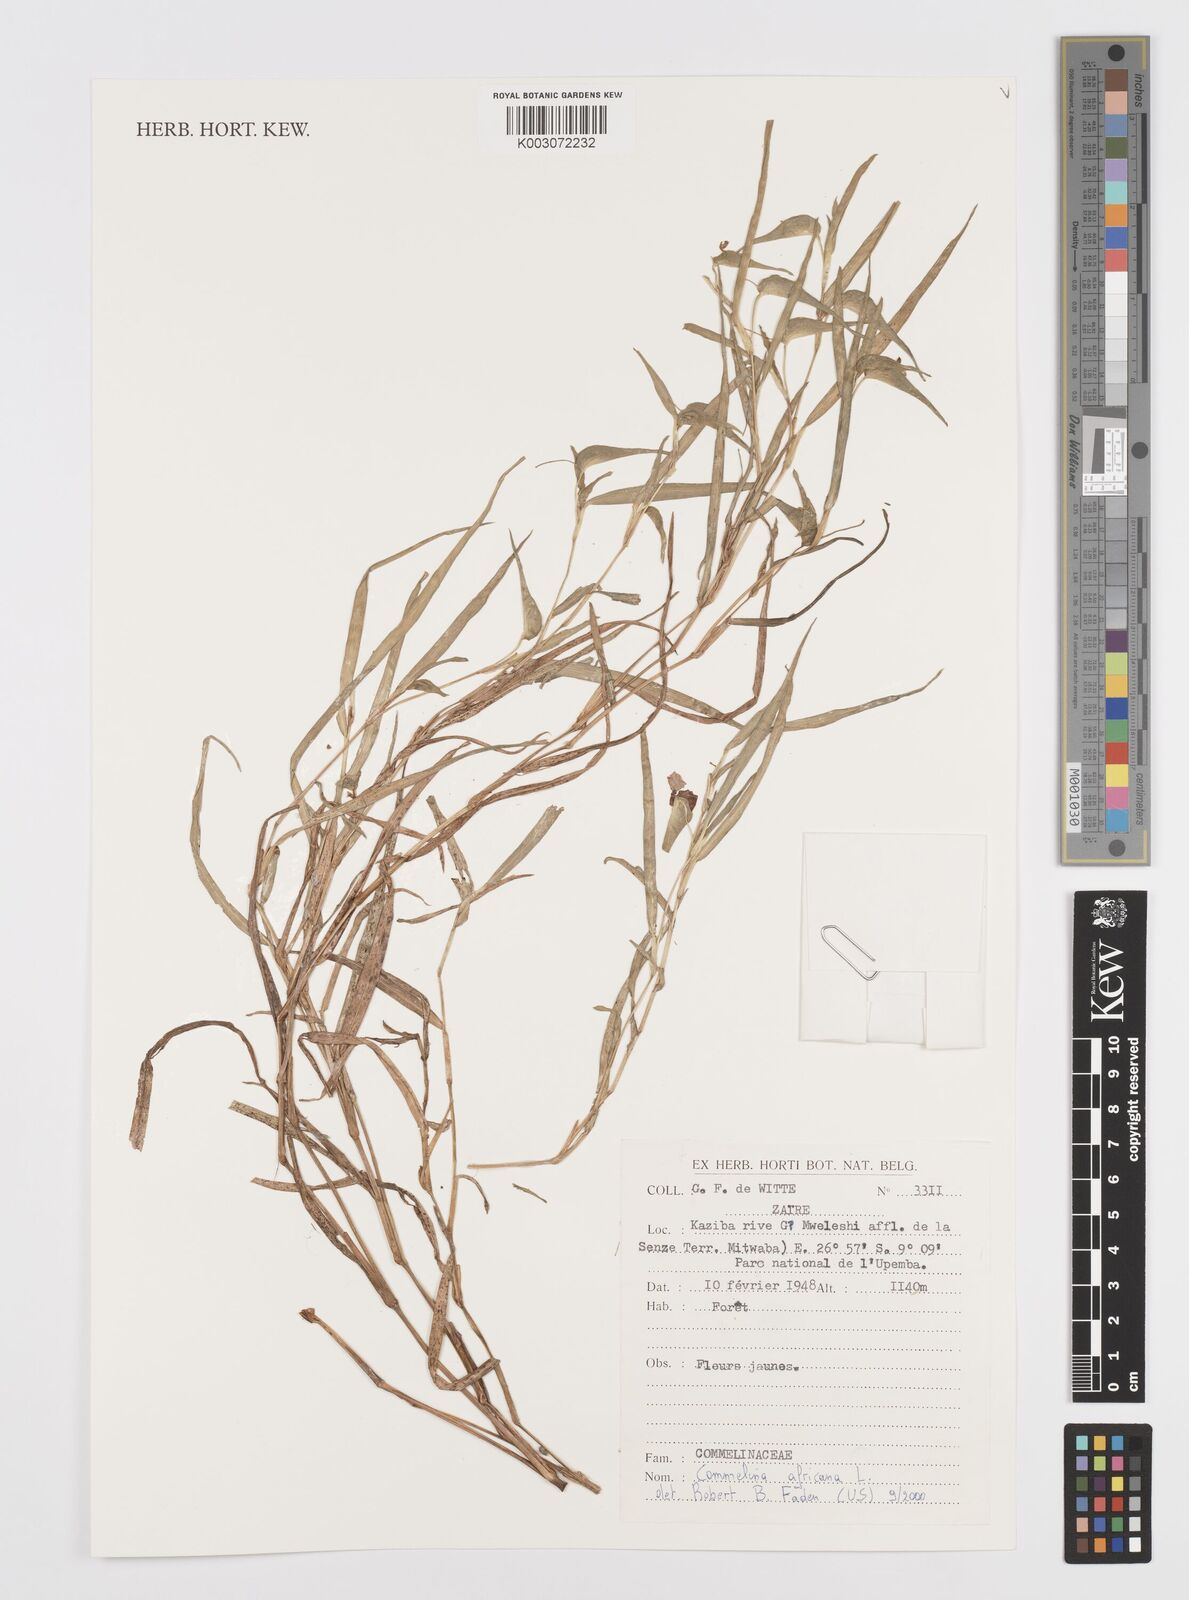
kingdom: Plantae
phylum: Tracheophyta
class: Liliopsida
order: Commelinales
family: Commelinaceae
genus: Commelina
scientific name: Commelina africana
